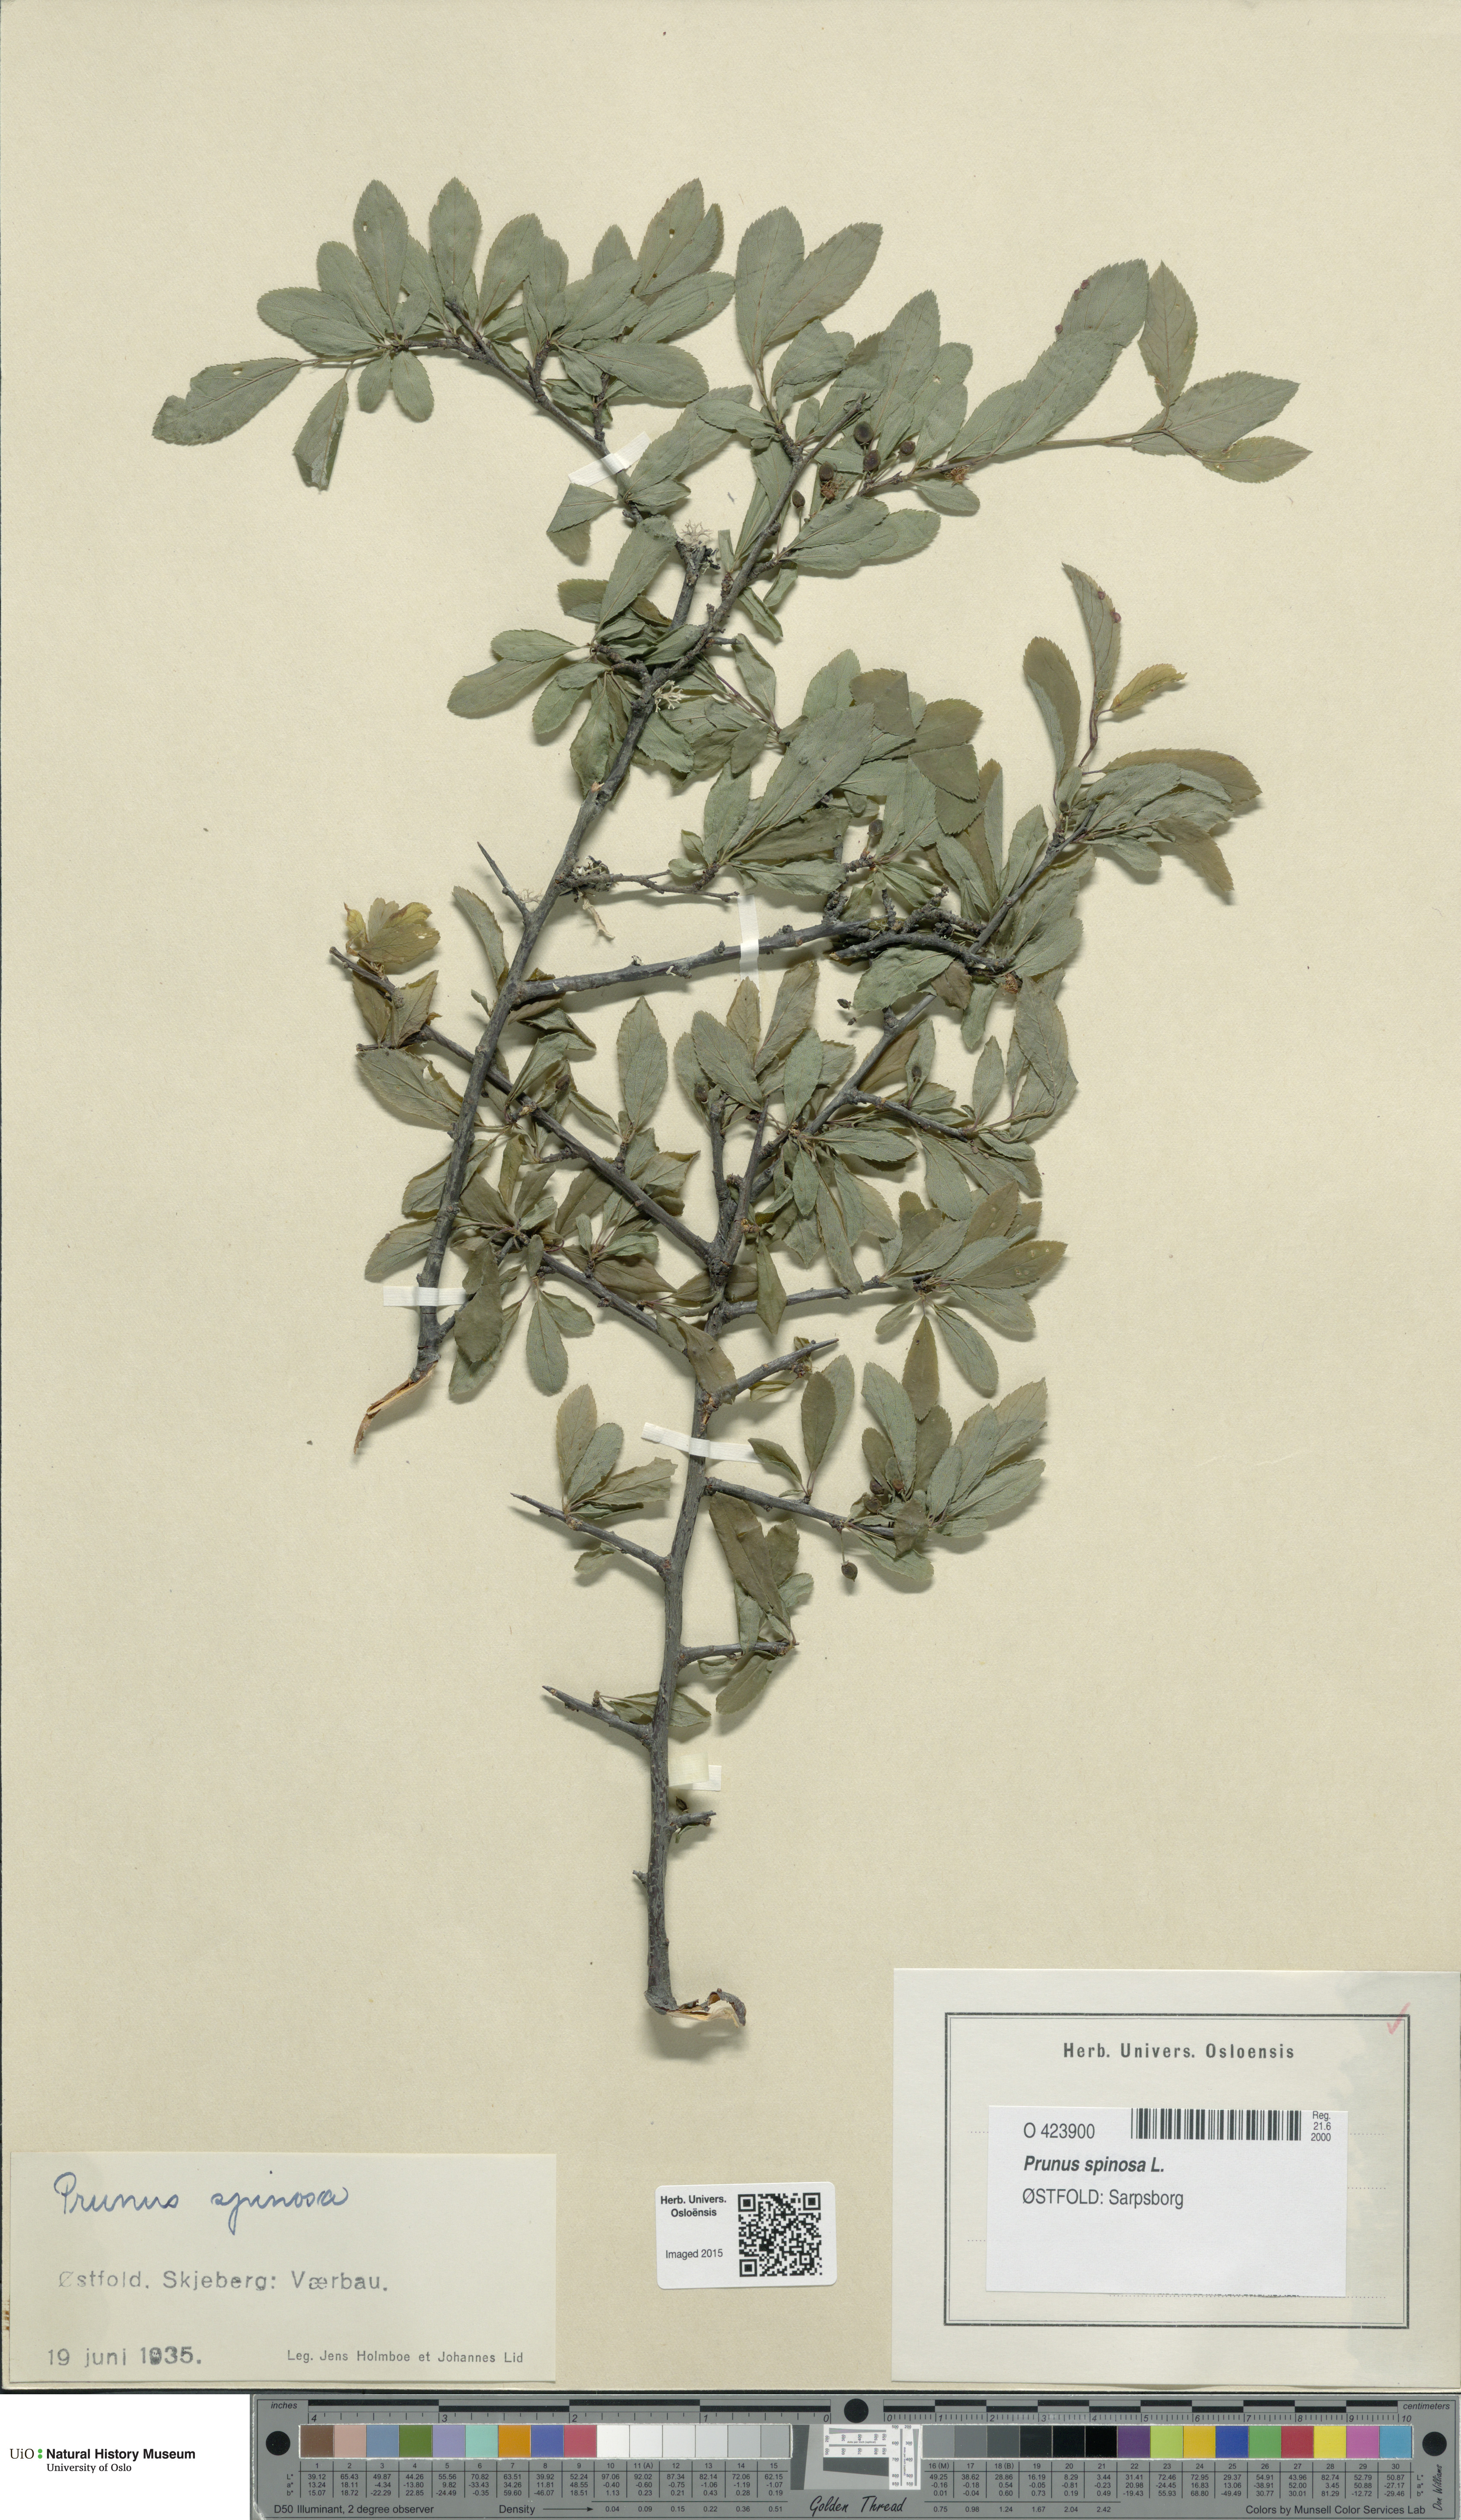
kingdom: Plantae
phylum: Tracheophyta
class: Magnoliopsida
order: Rosales
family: Rosaceae
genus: Prunus
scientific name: Prunus spinosa
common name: Blackthorn
